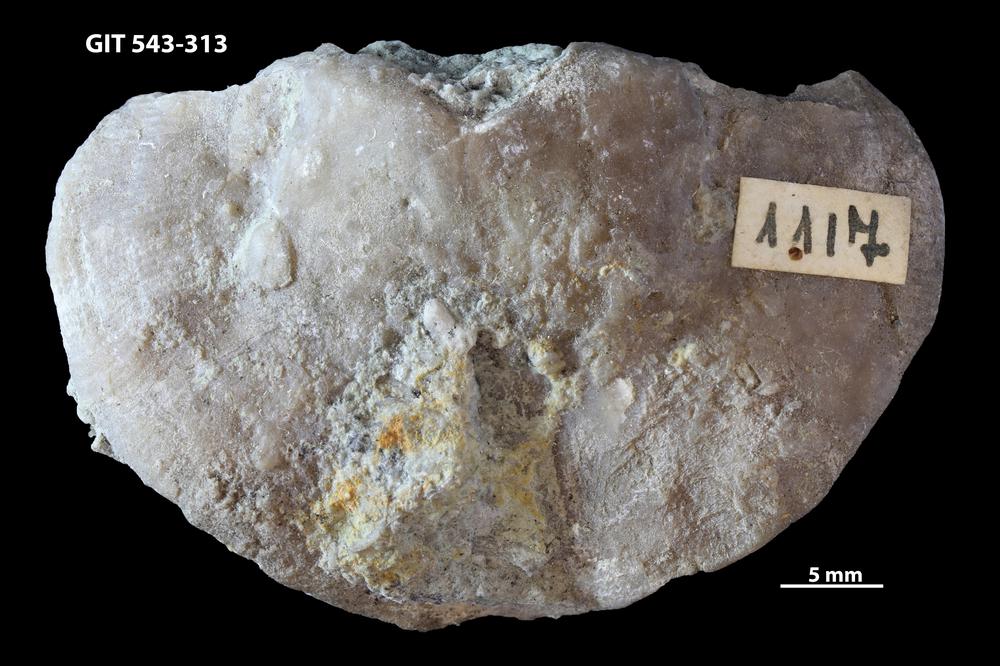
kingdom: Animalia
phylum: Brachiopoda
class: Rhynchonellata
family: Clitambonitidae
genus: Ilmarinia
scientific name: Ilmarinia dimorpha
